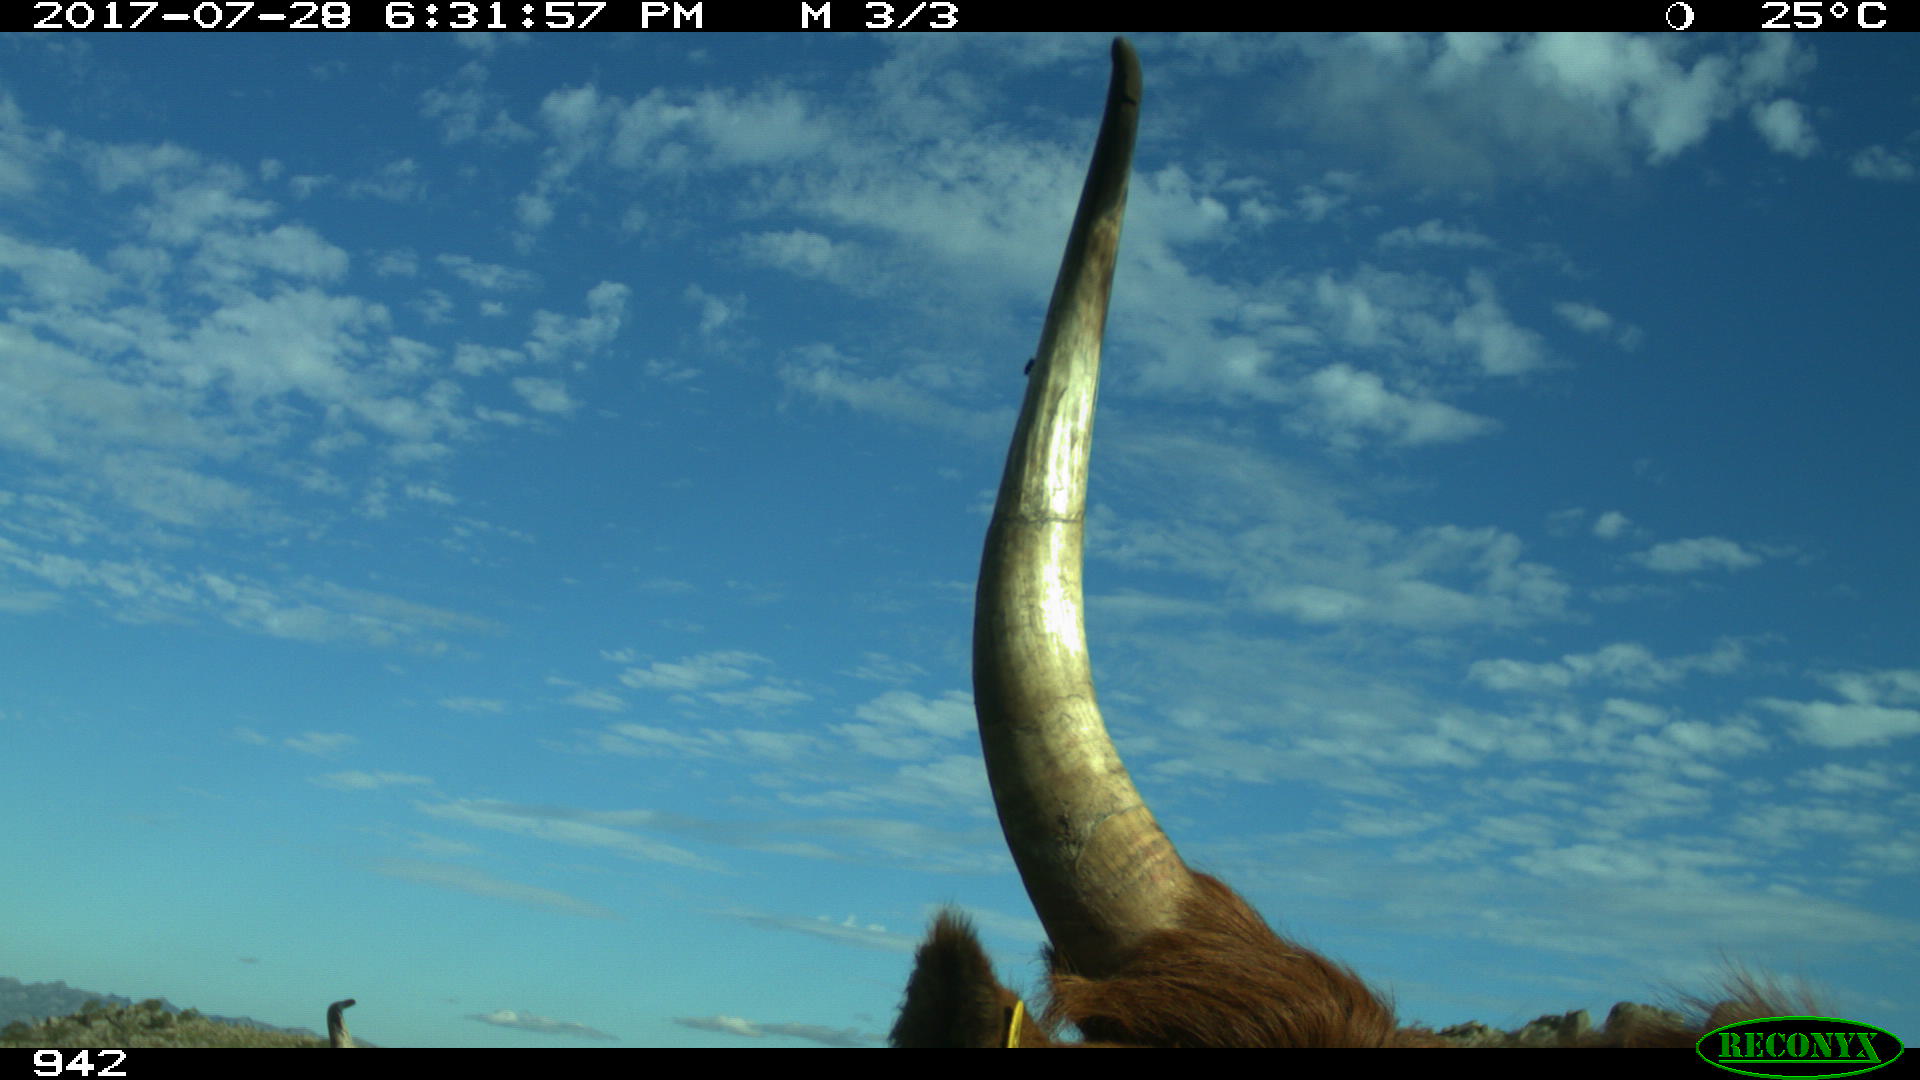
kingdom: Animalia
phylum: Chordata
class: Mammalia
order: Artiodactyla
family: Bovidae
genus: Bos
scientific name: Bos taurus
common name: Domesticated cattle
